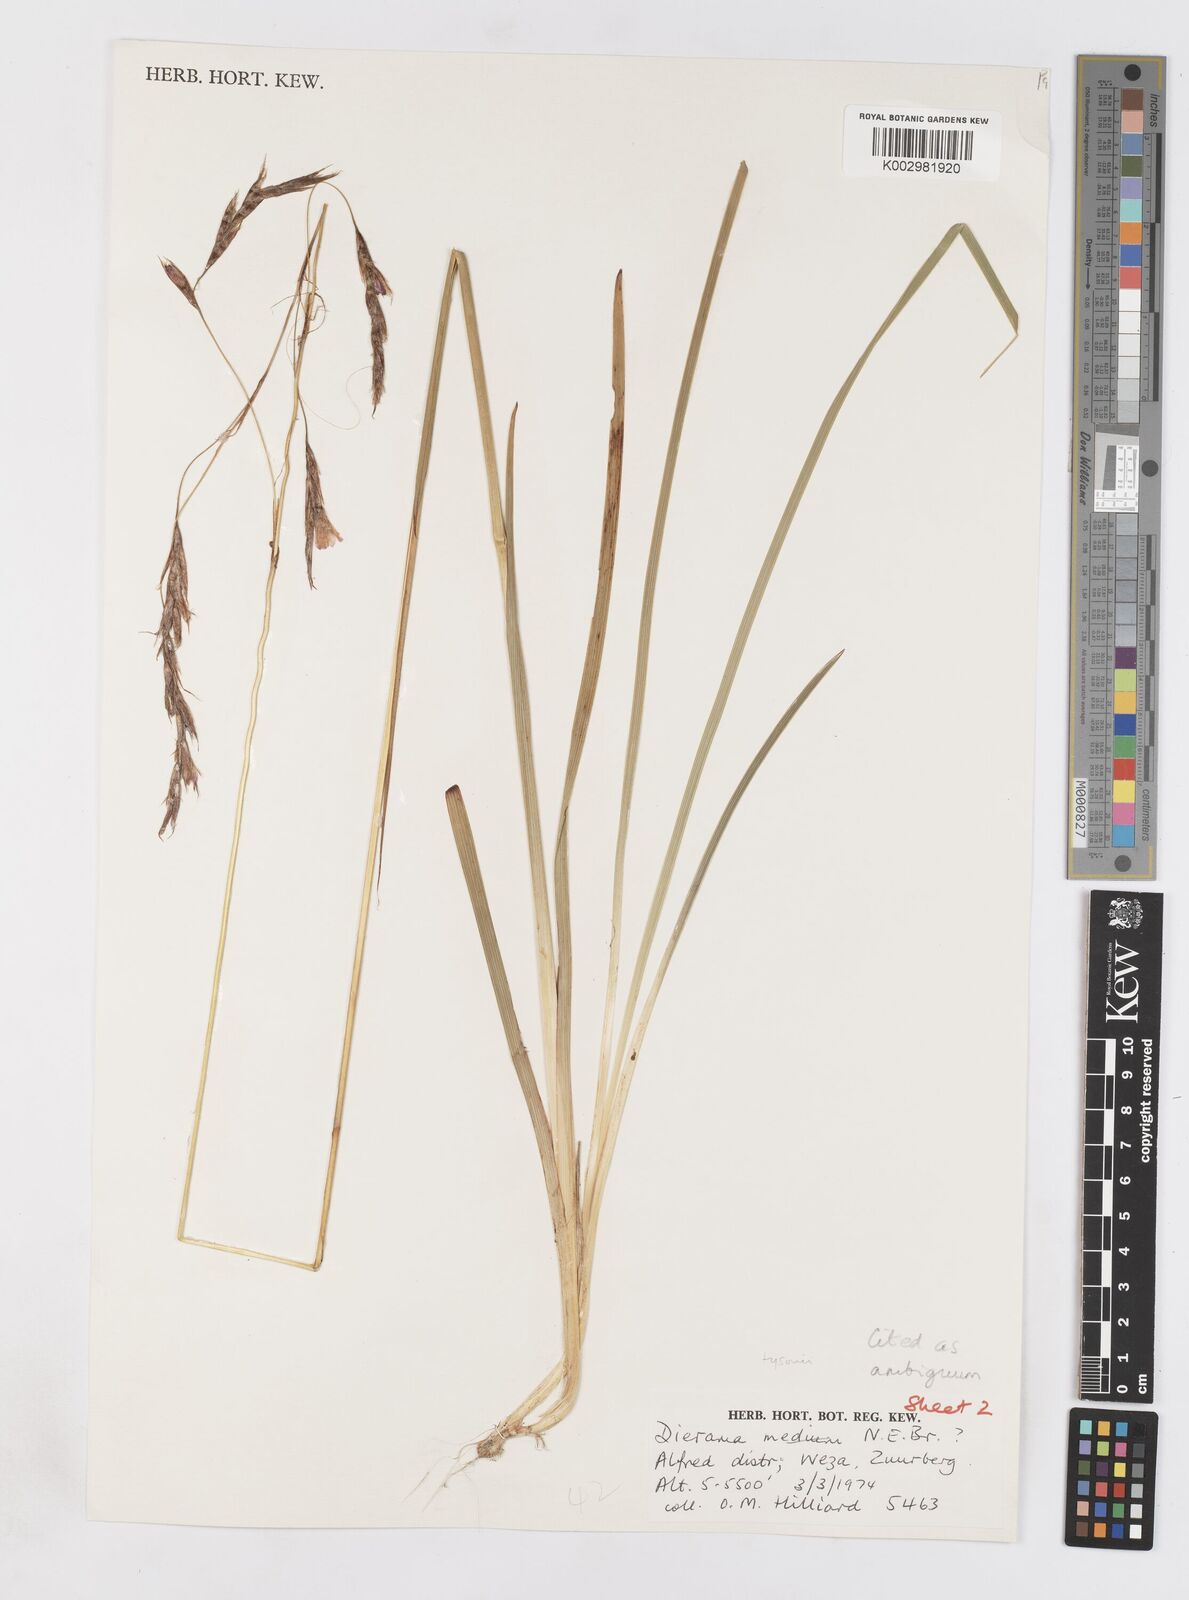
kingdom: Plantae
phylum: Tracheophyta
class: Liliopsida
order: Asparagales
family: Iridaceae
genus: Dierama
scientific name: Dierama
